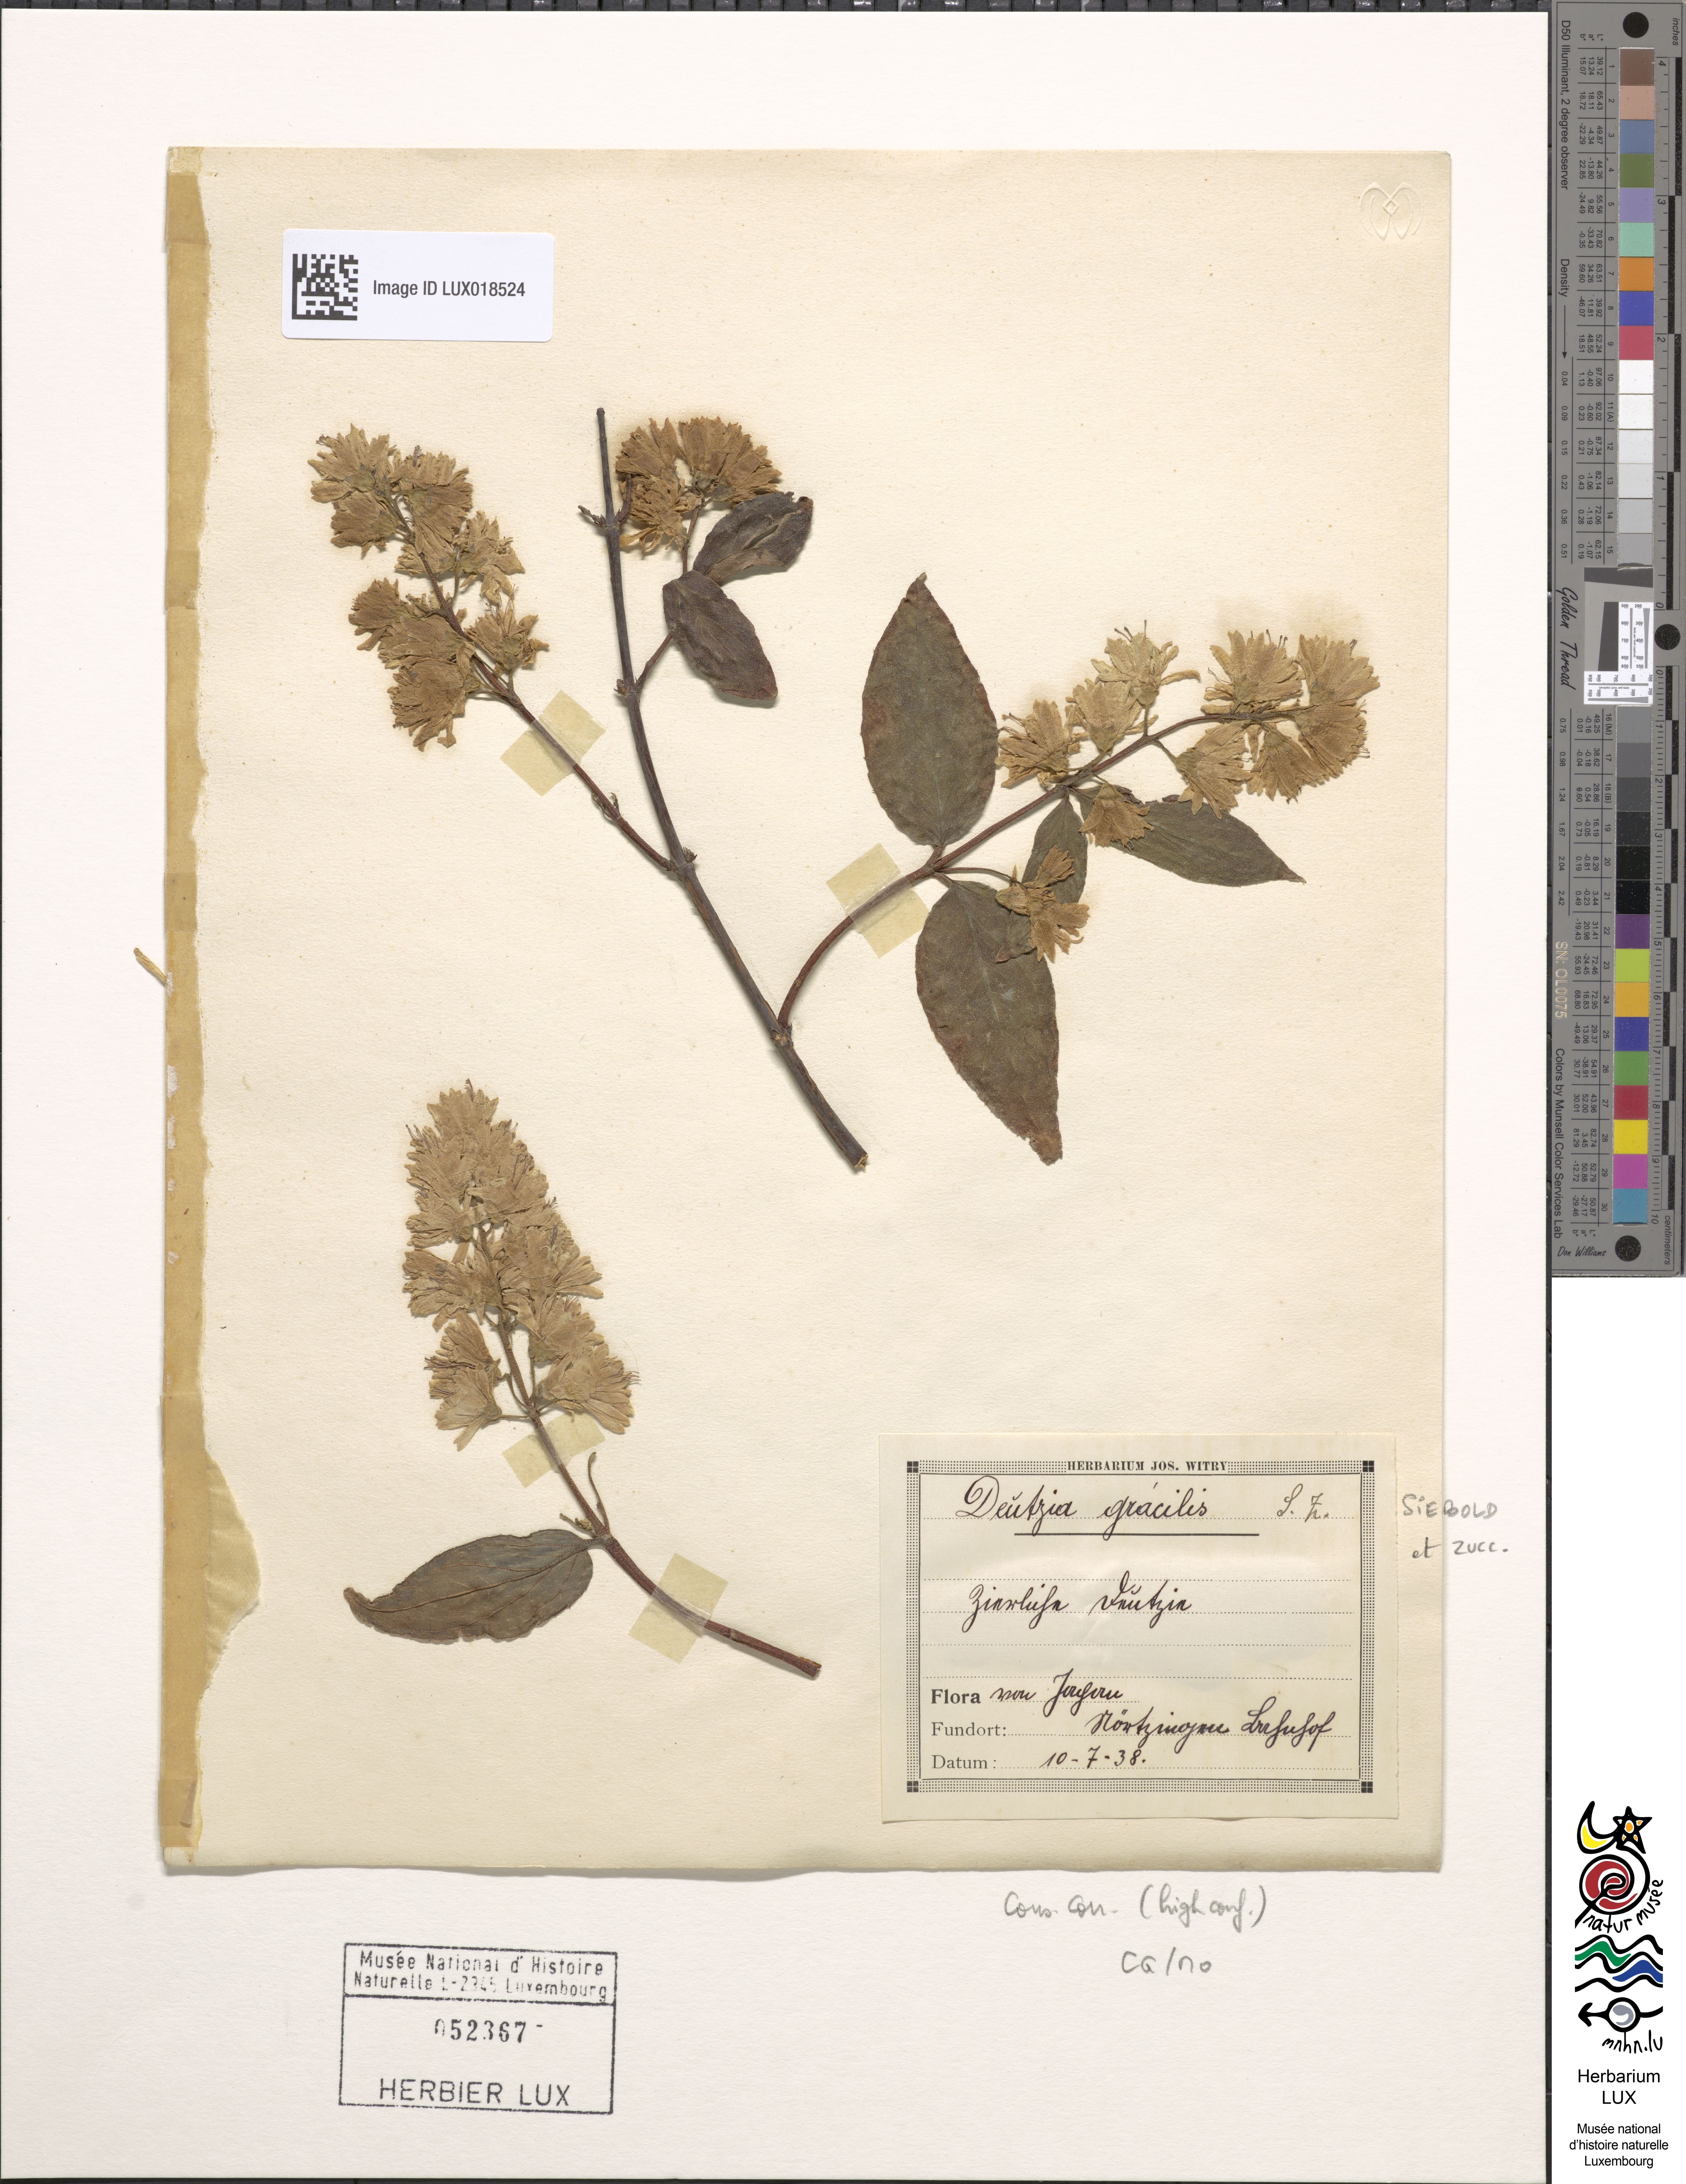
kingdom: Plantae
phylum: Tracheophyta
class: Magnoliopsida
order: Cornales
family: Hydrangeaceae
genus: Deutzia
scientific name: Deutzia gracilis
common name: Slender pride of rochester
